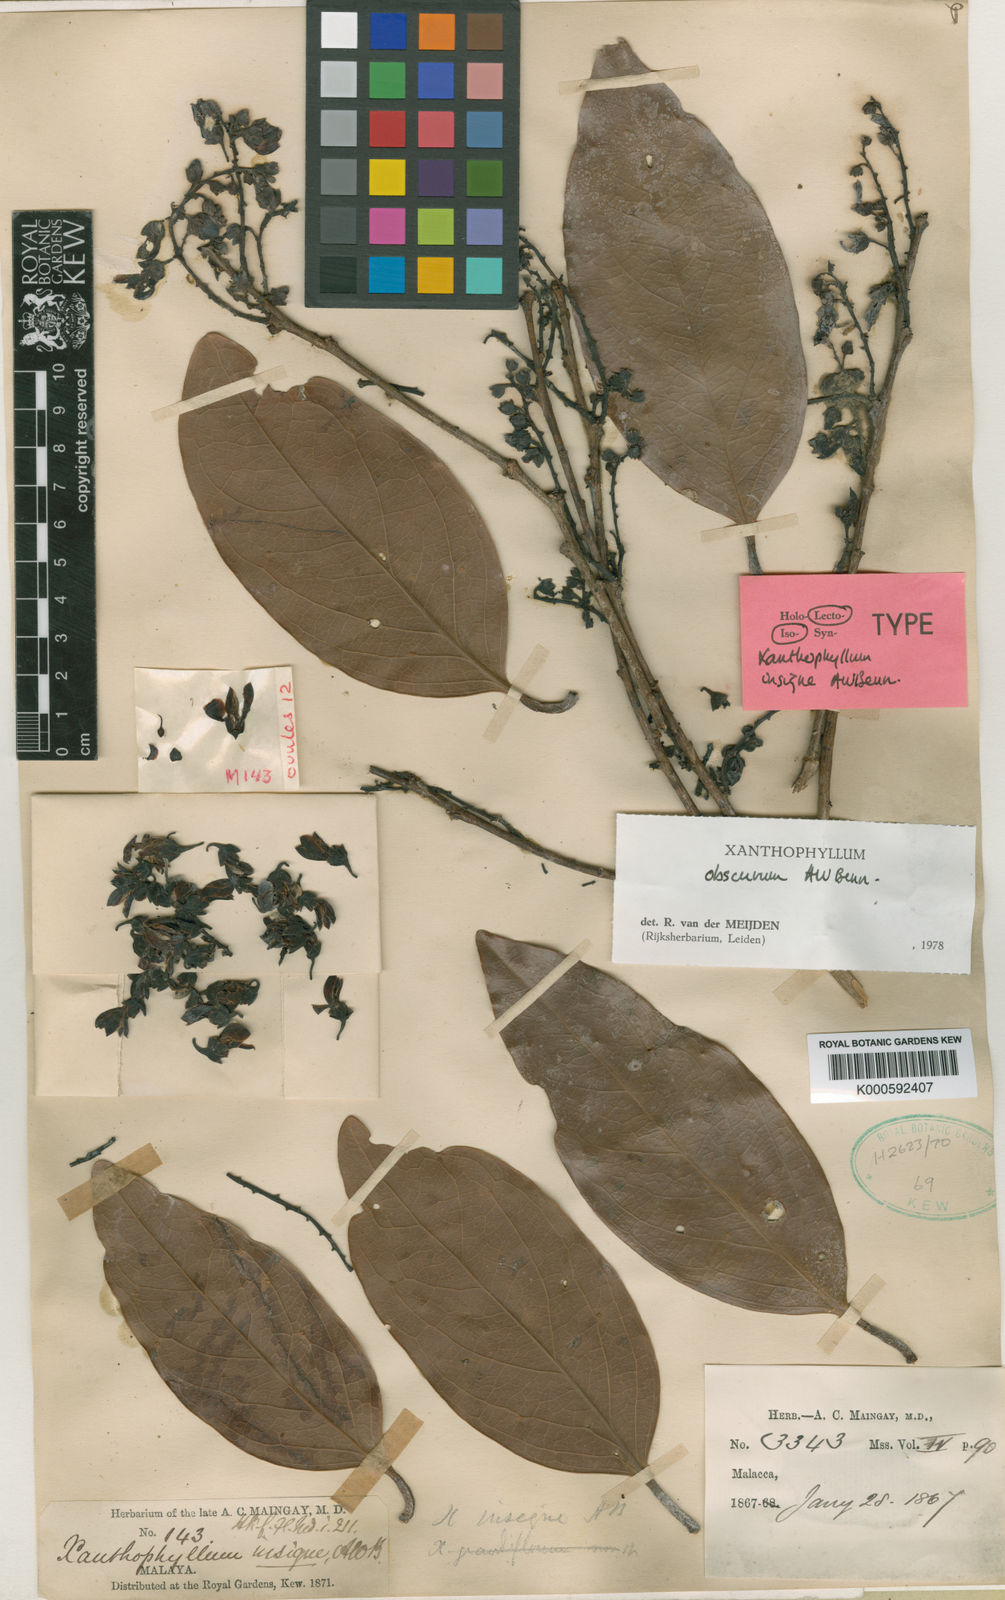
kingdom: Plantae
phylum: Tracheophyta
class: Magnoliopsida
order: Fabales
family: Polygalaceae
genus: Xanthophyllum
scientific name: Xanthophyllum obscurum
